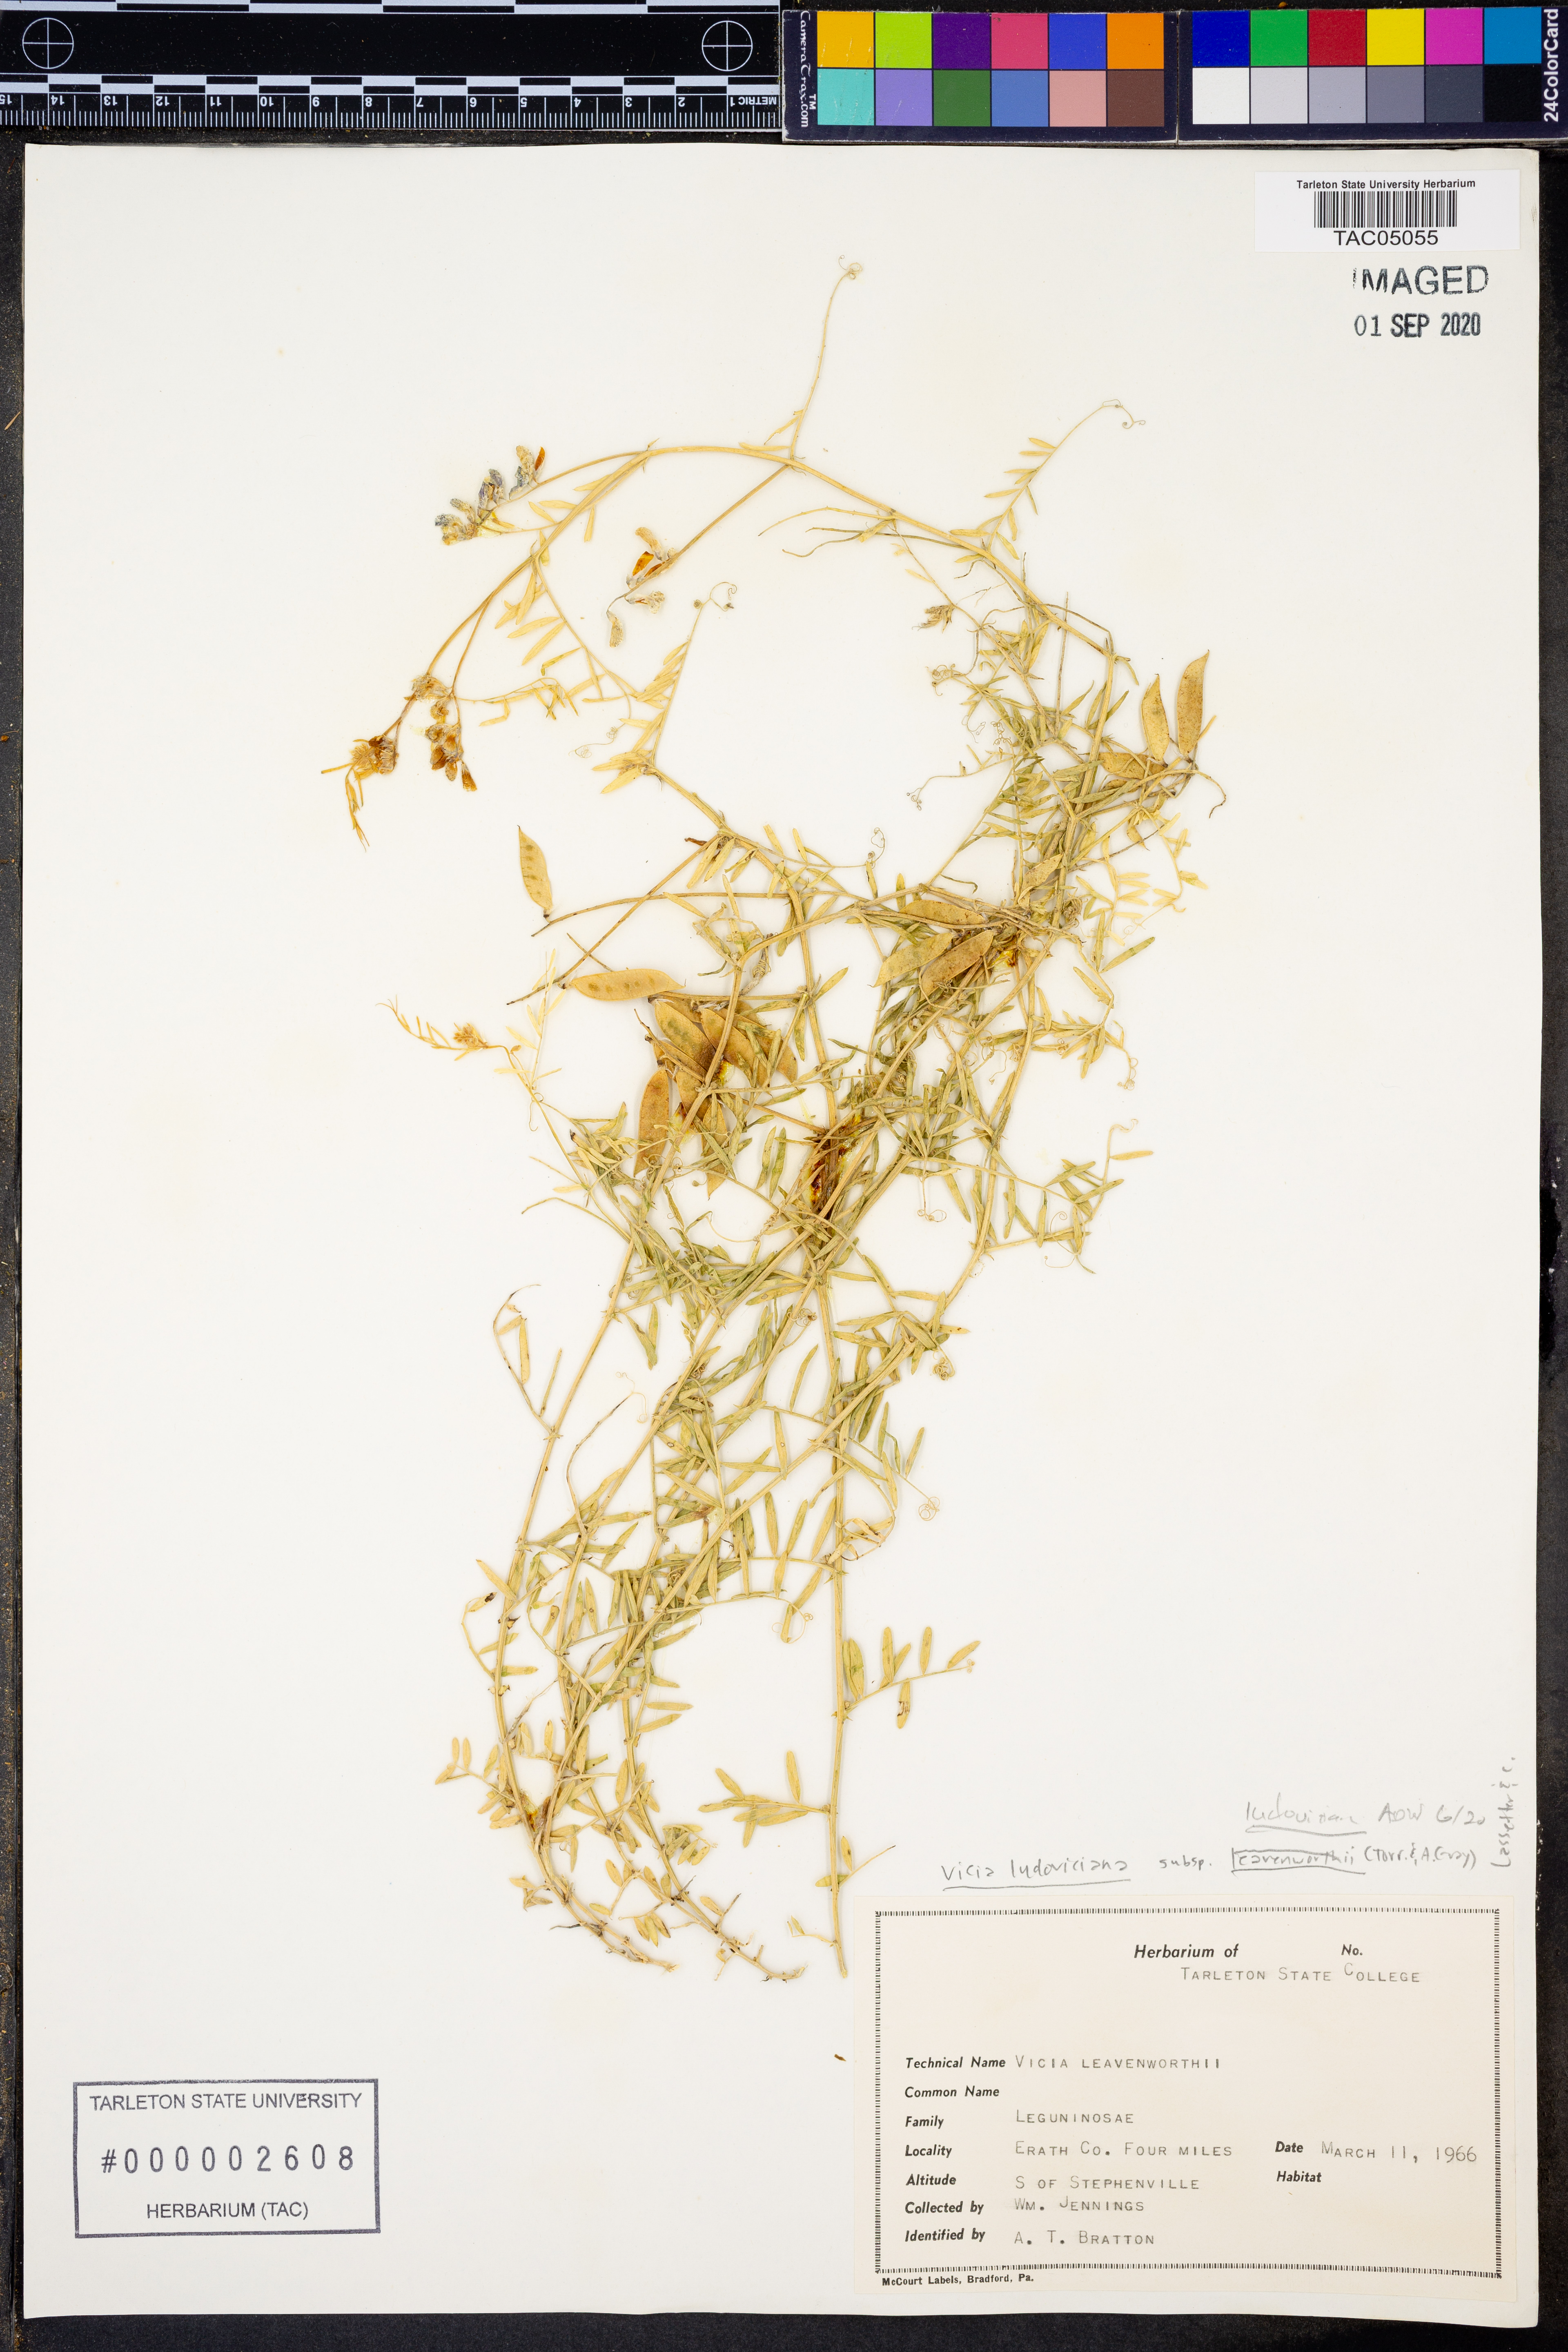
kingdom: Plantae
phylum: Tracheophyta
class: Magnoliopsida
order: Fabales
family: Fabaceae
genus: Vicia
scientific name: Vicia ludoviciana
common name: Louisiana vetch
